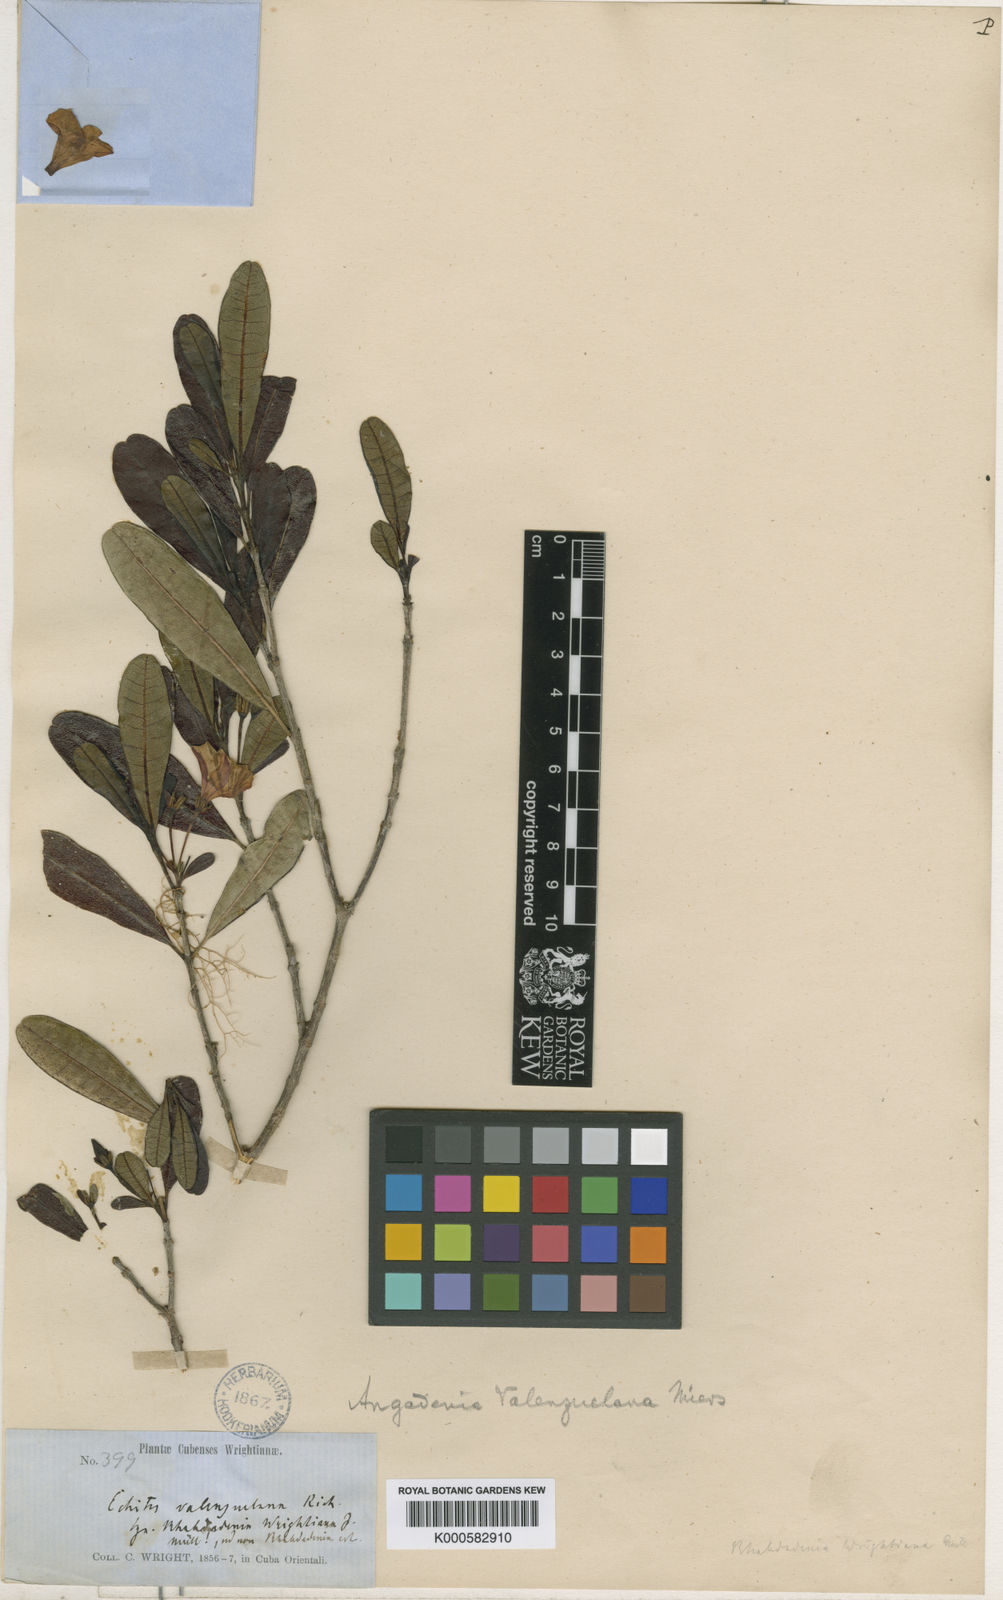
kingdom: Plantae
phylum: Tracheophyta
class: Magnoliopsida
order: Gentianales
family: Apocynaceae
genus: Neobracea
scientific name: Neobracea valenzuelana
